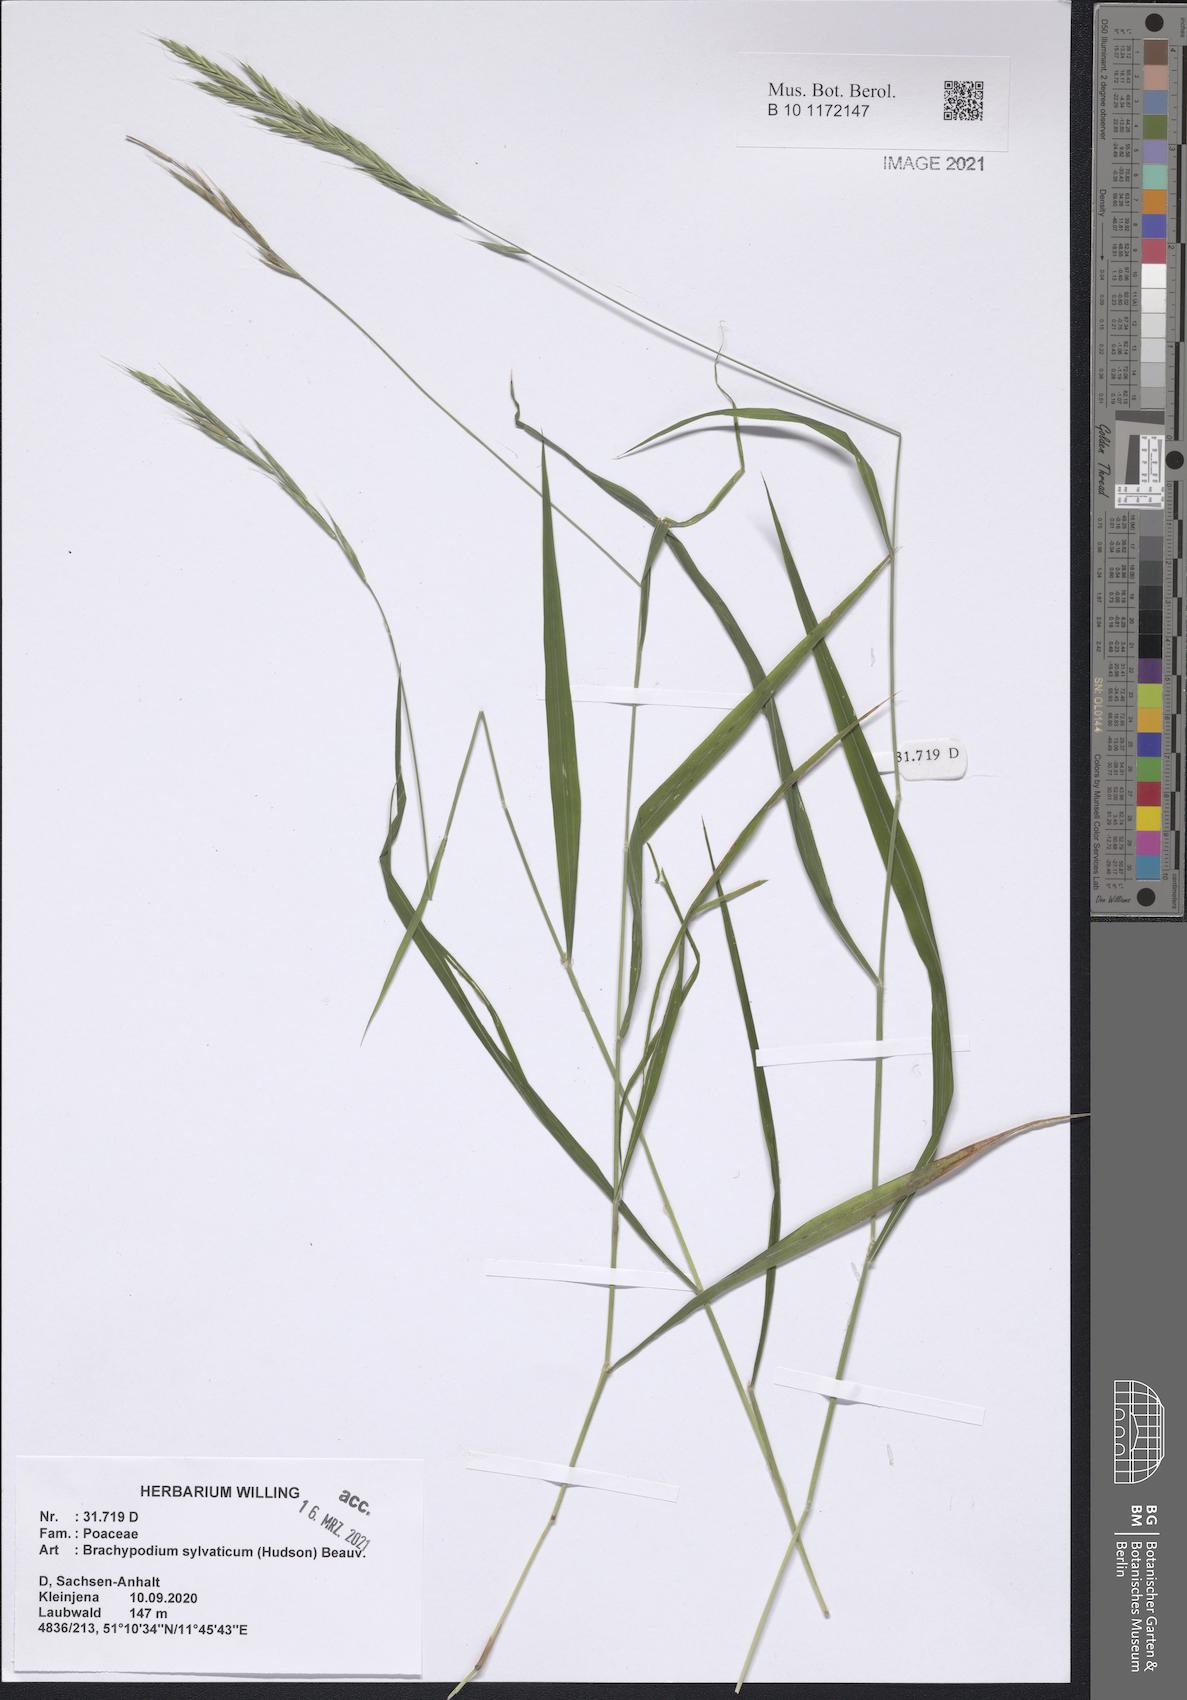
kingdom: Plantae
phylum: Tracheophyta
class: Liliopsida
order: Poales
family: Poaceae
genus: Brachypodium
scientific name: Brachypodium sylvaticum
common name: False-brome
